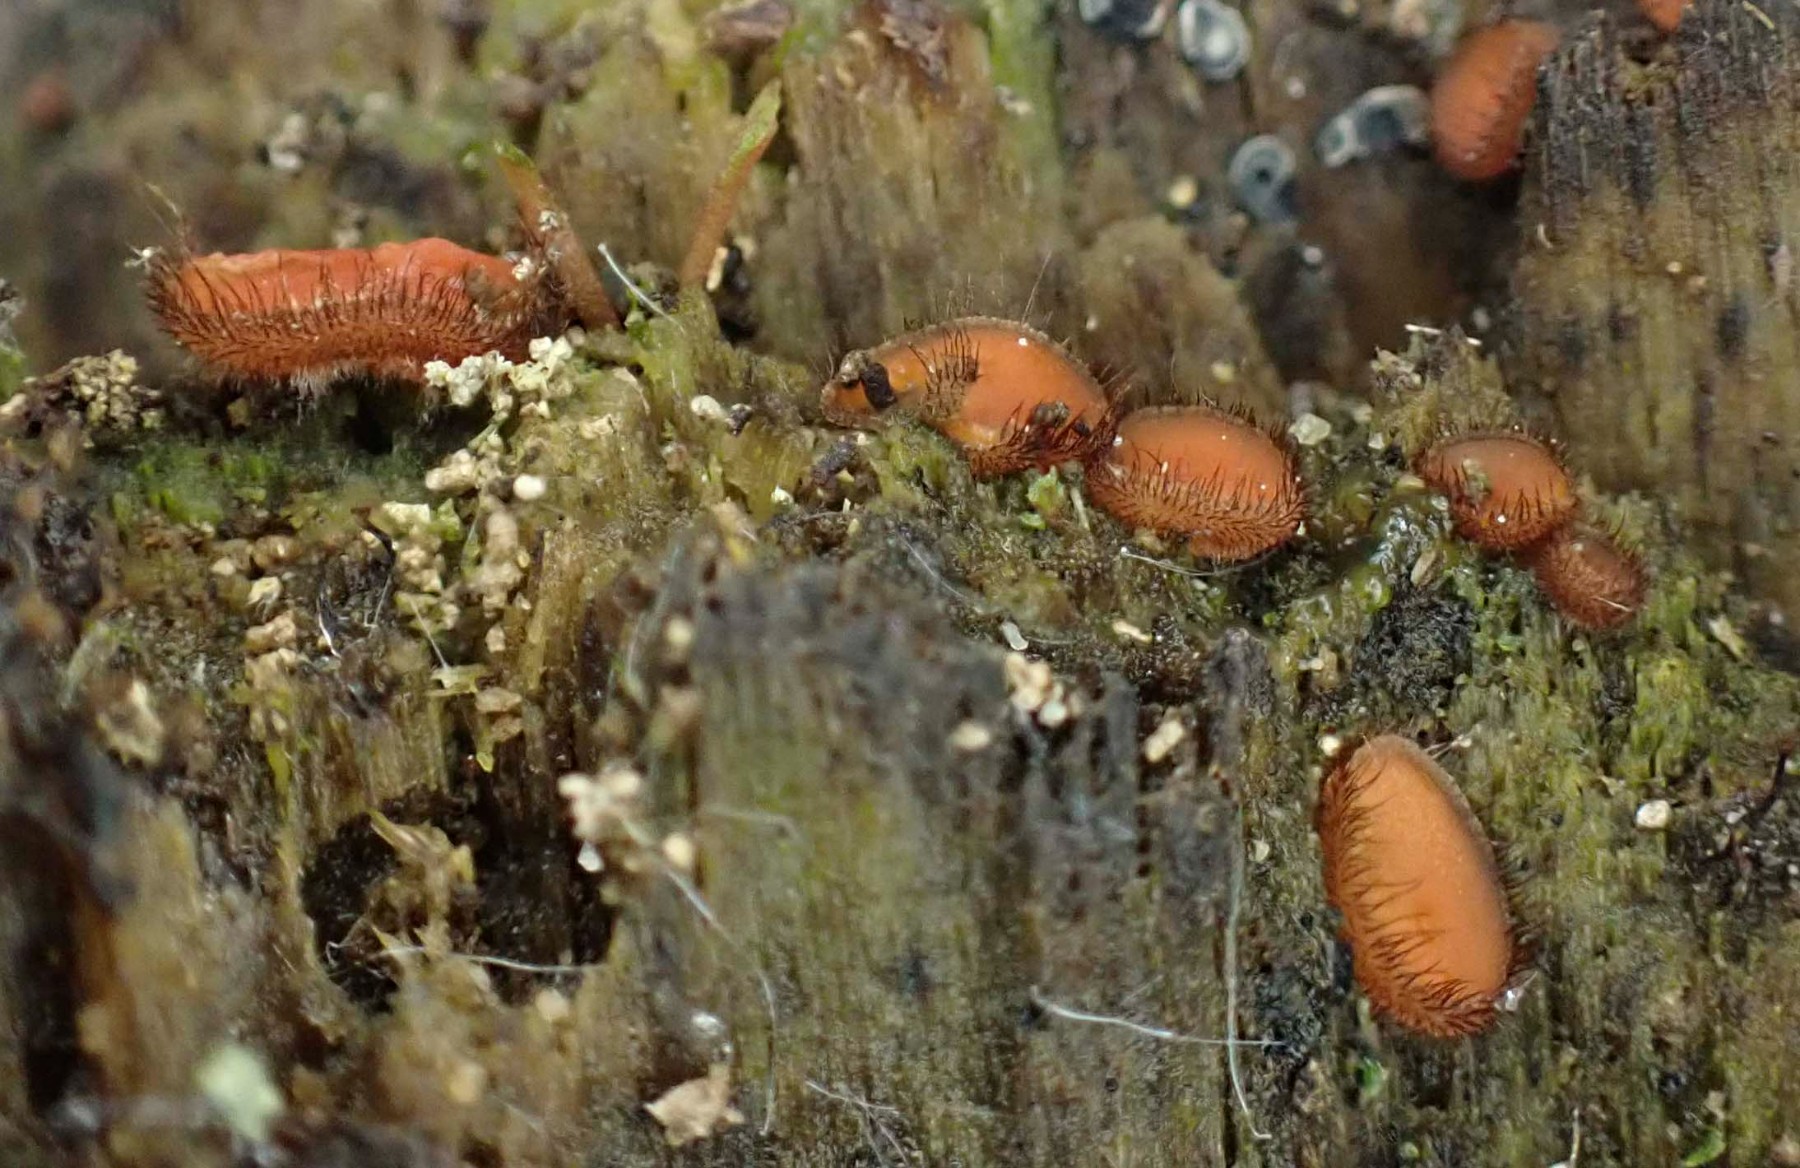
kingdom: Fungi
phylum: Ascomycota
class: Pezizomycetes
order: Pezizales
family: Pyronemataceae
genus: Scutellinia
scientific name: Scutellinia scutellata
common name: frynset skjoldbæger
